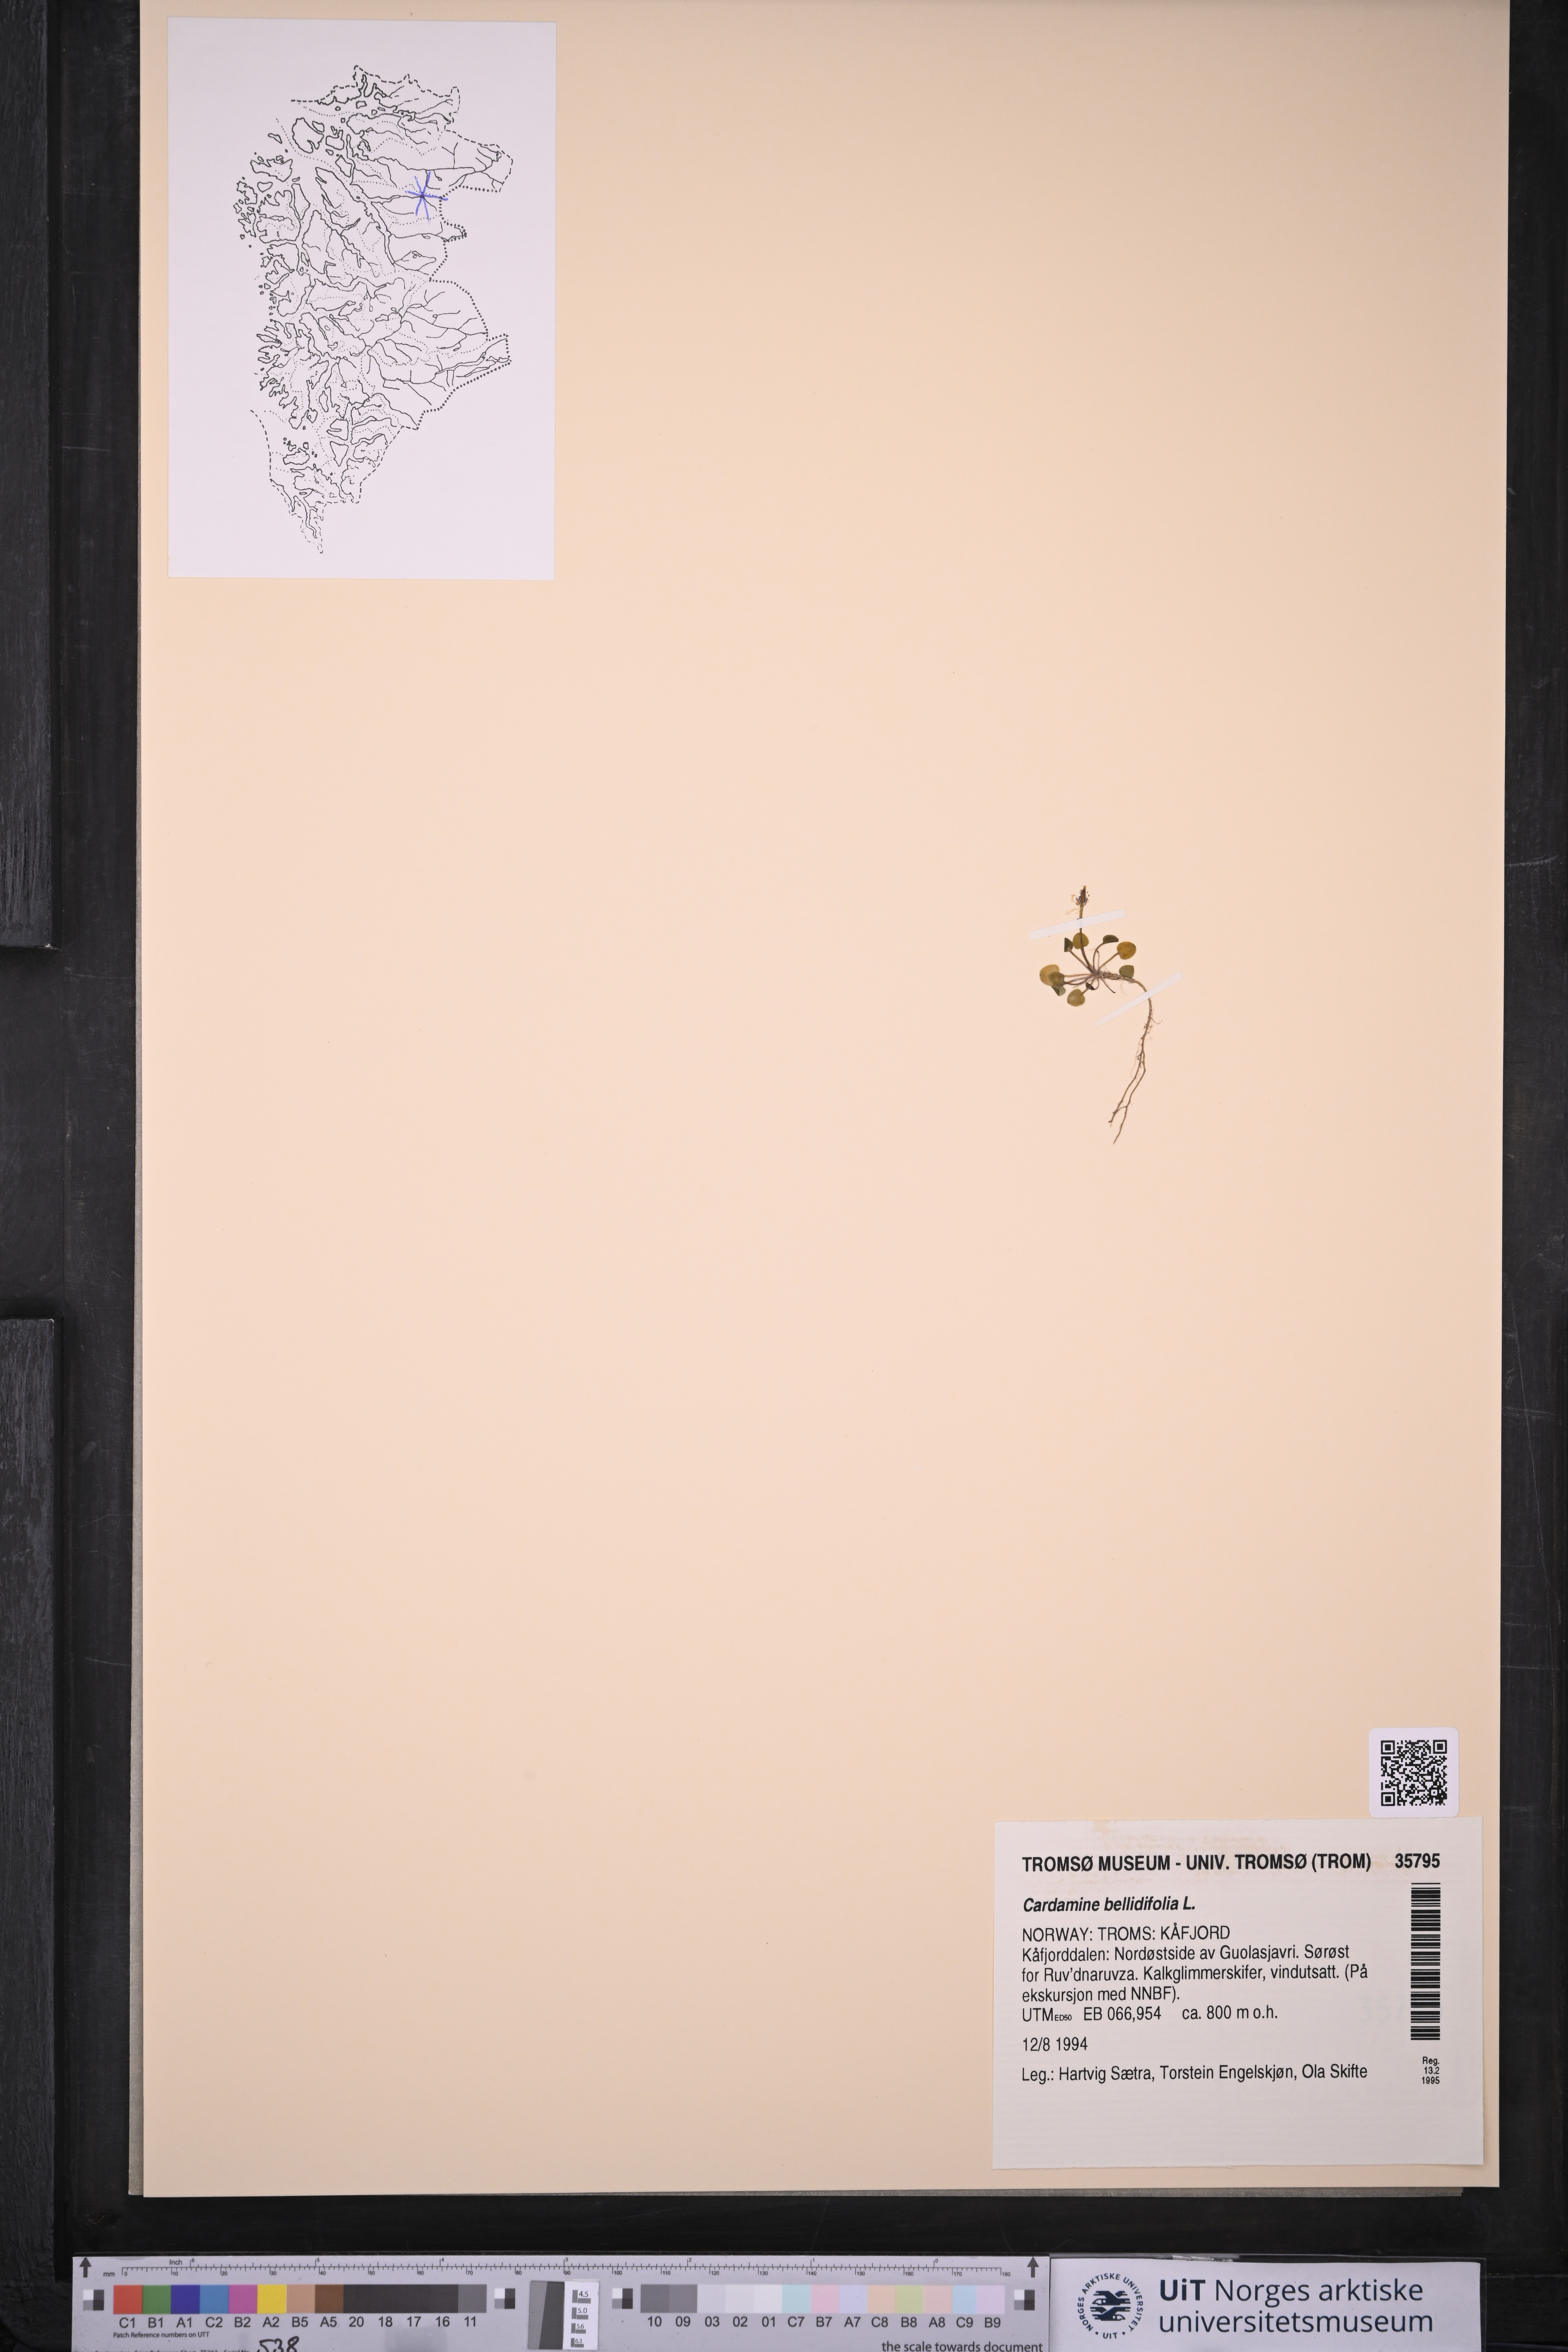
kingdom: Plantae
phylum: Tracheophyta
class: Magnoliopsida
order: Brassicales
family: Brassicaceae
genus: Cardamine
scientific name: Cardamine bellidifolia
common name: Alpine bittercress
